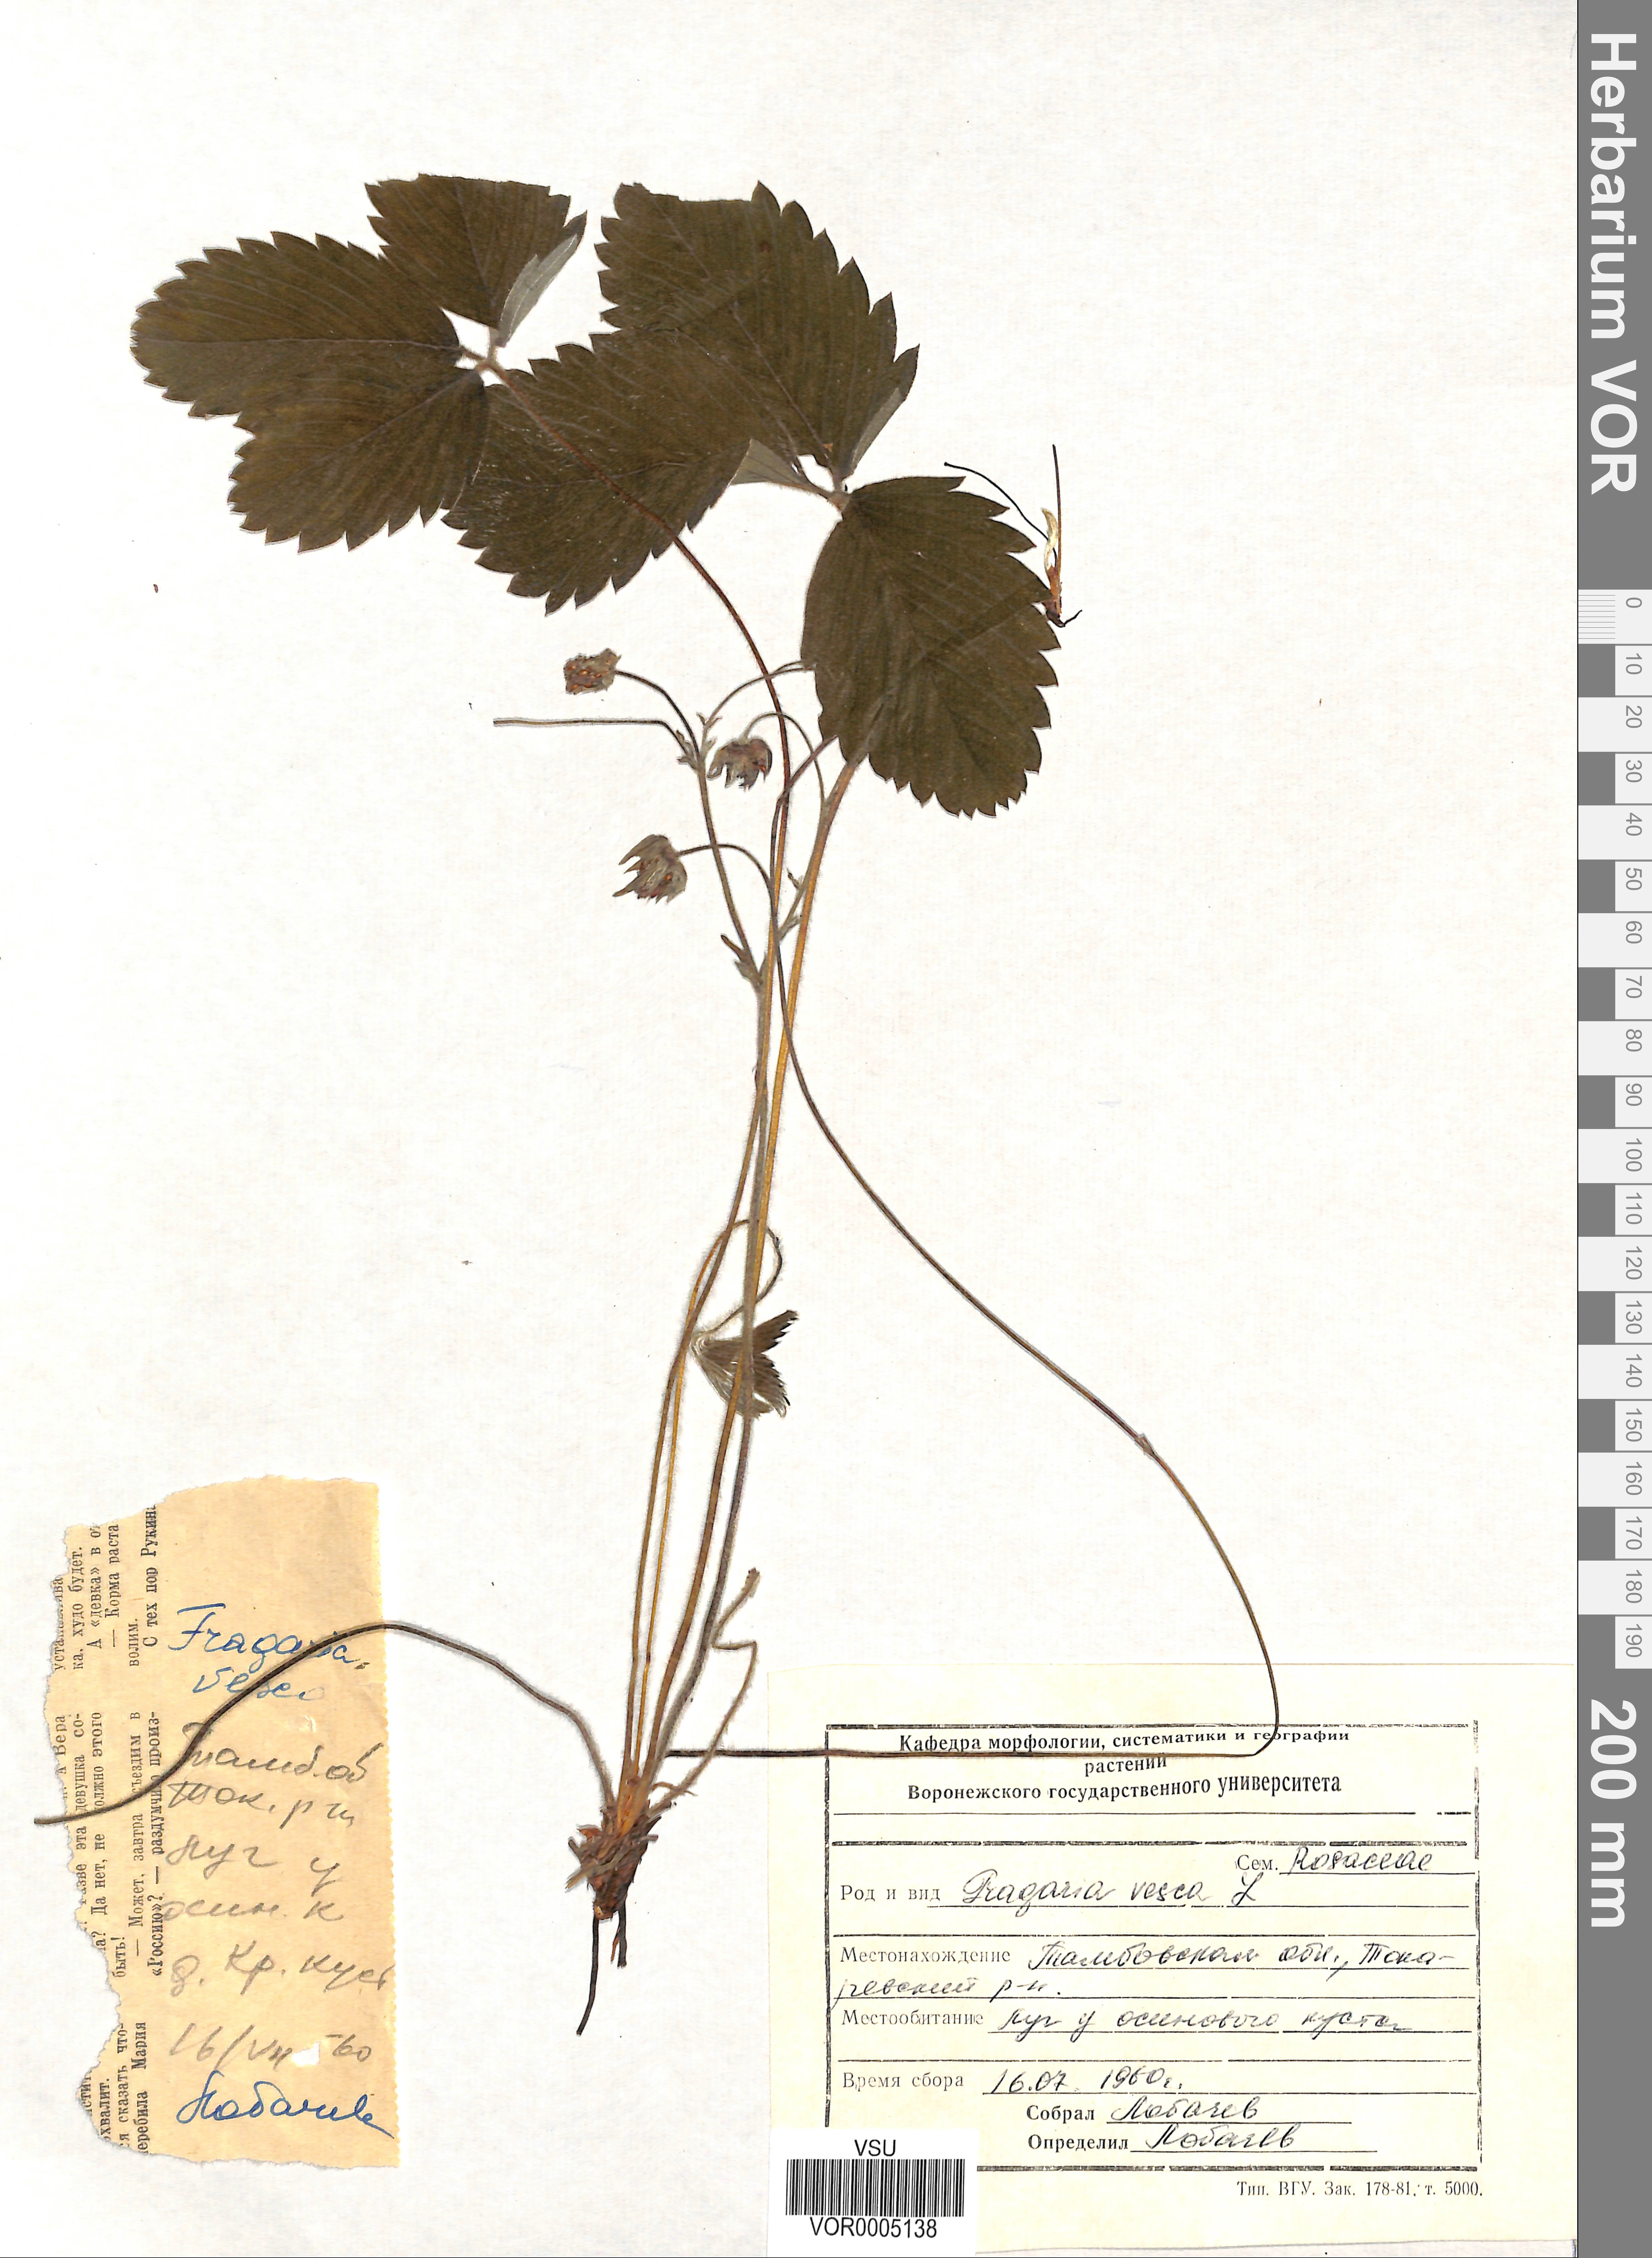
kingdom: Plantae
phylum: Tracheophyta
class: Magnoliopsida
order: Rosales
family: Rosaceae
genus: Fragaria
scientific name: Fragaria vesca
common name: Wild strawberry
